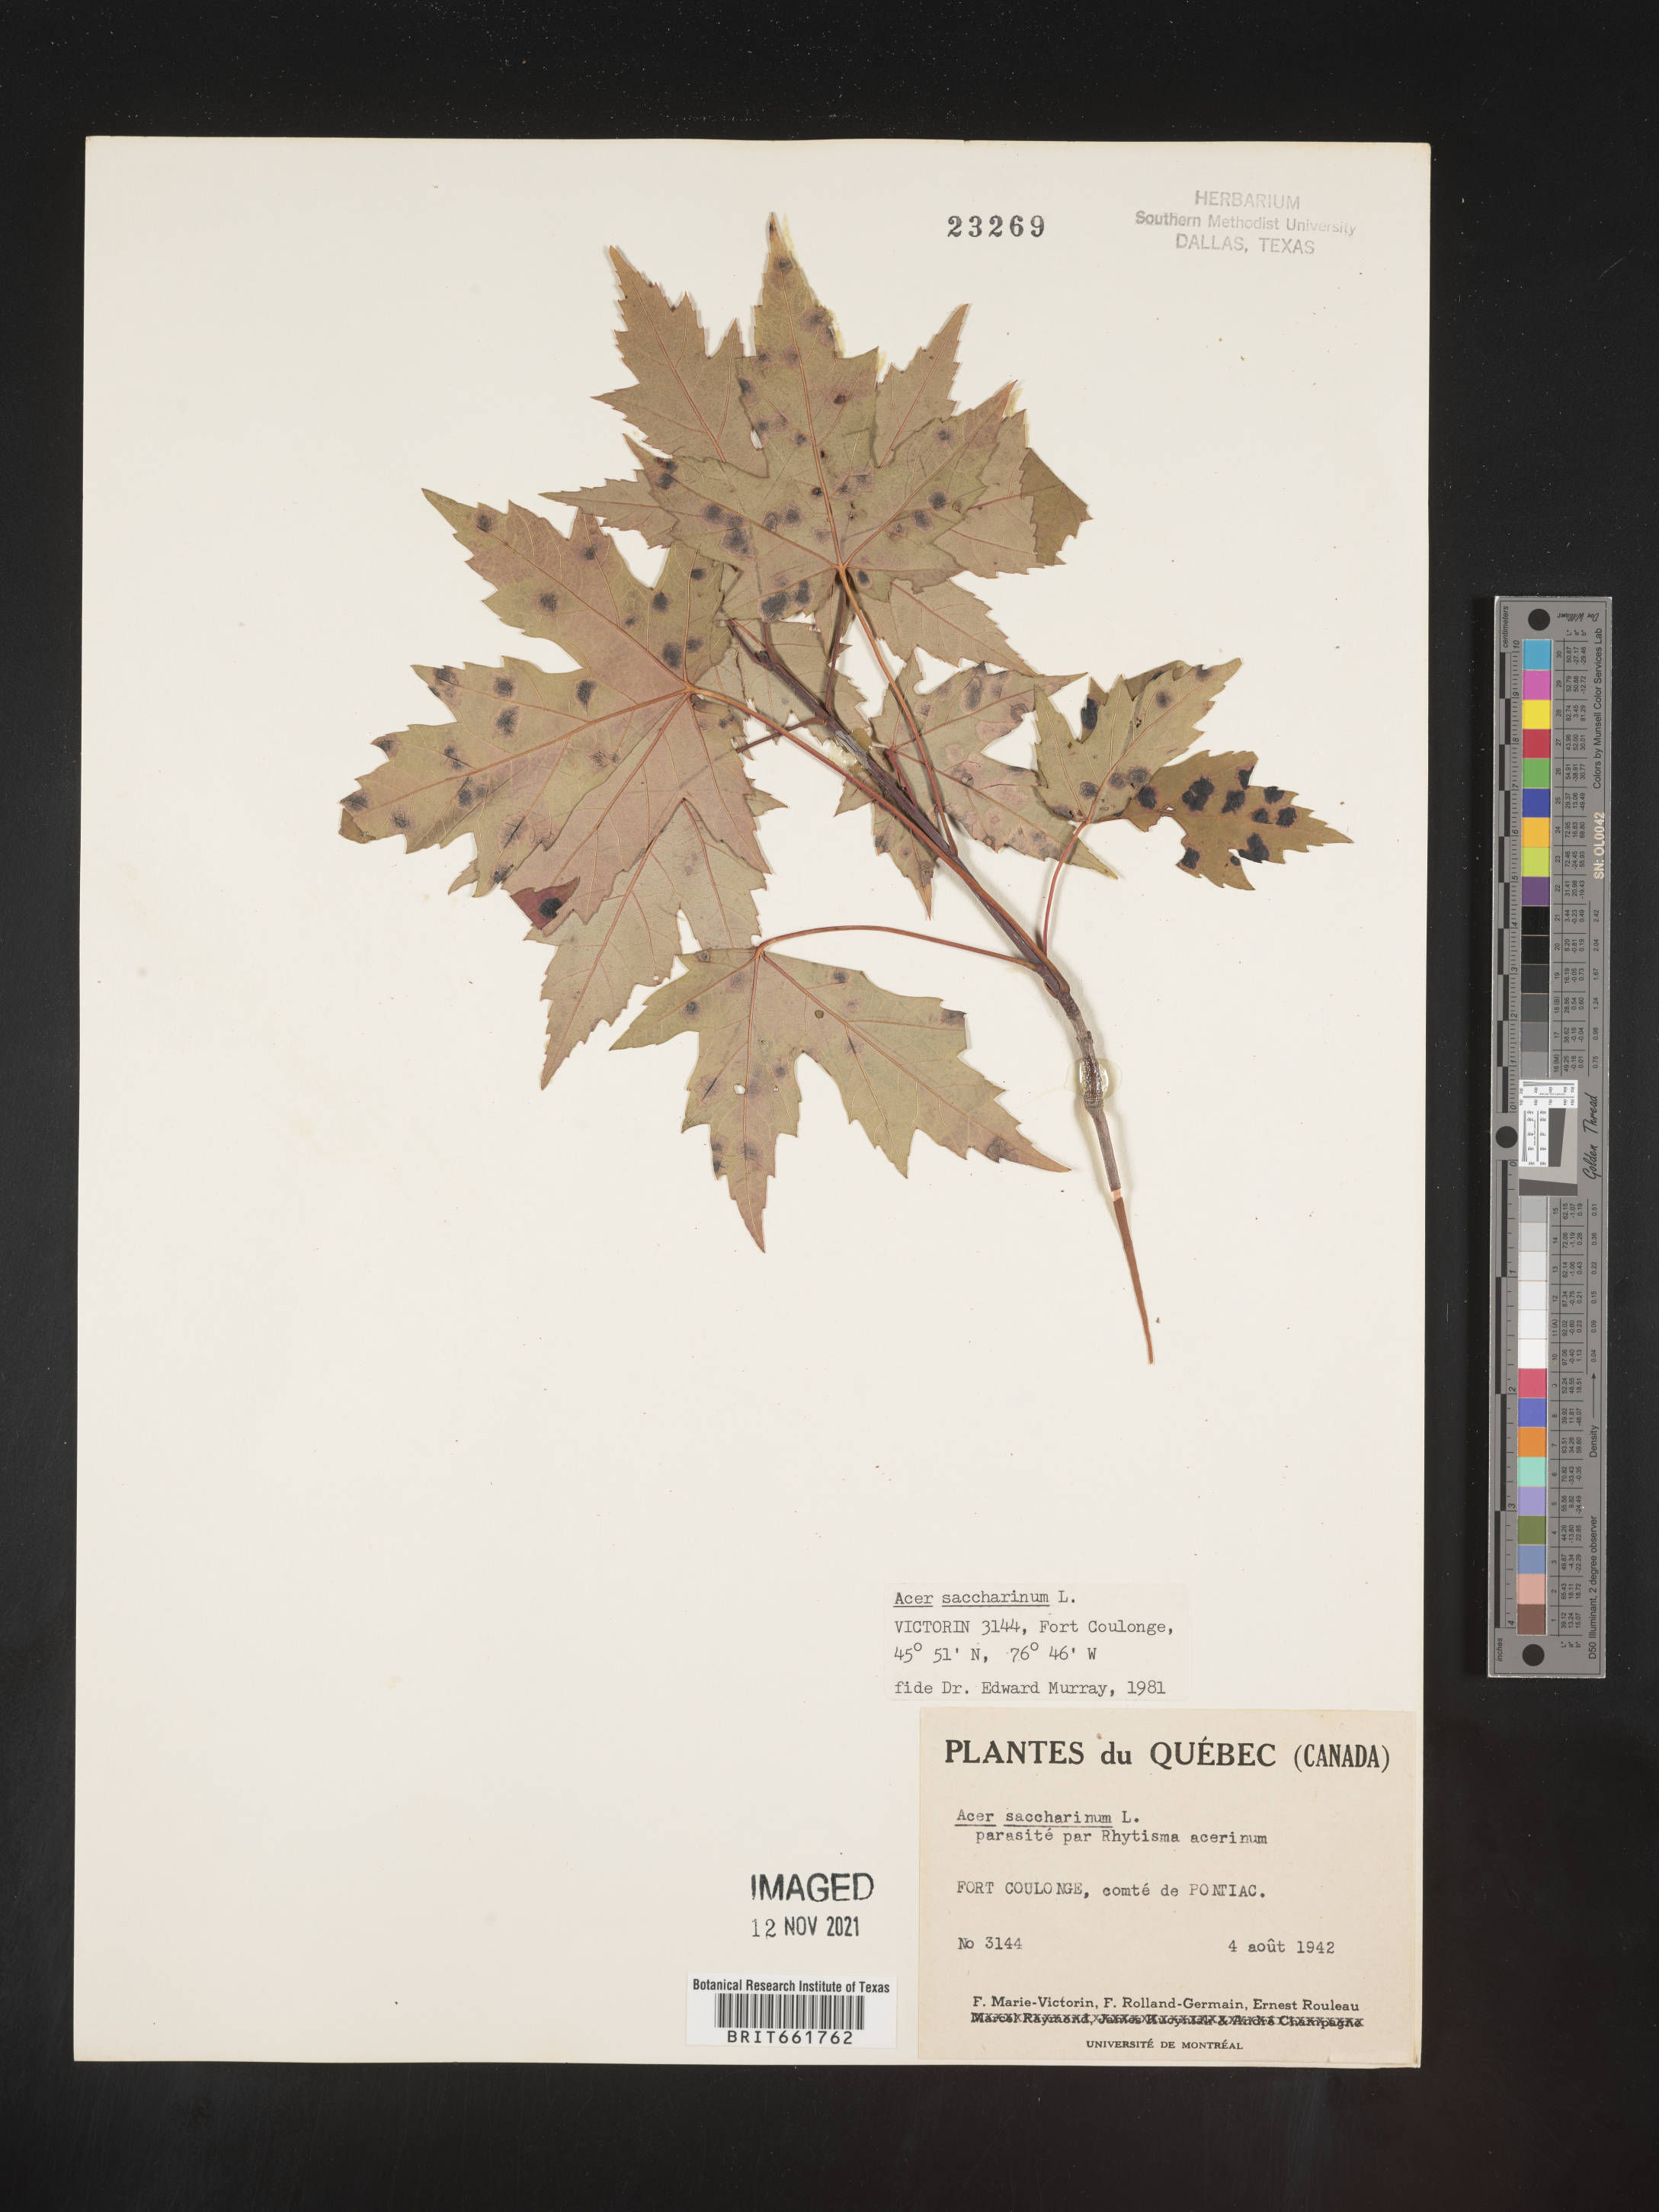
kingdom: Plantae
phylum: Tracheophyta
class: Magnoliopsida
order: Sapindales
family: Sapindaceae
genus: Acer
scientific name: Acer saccharinum
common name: Silver maple
